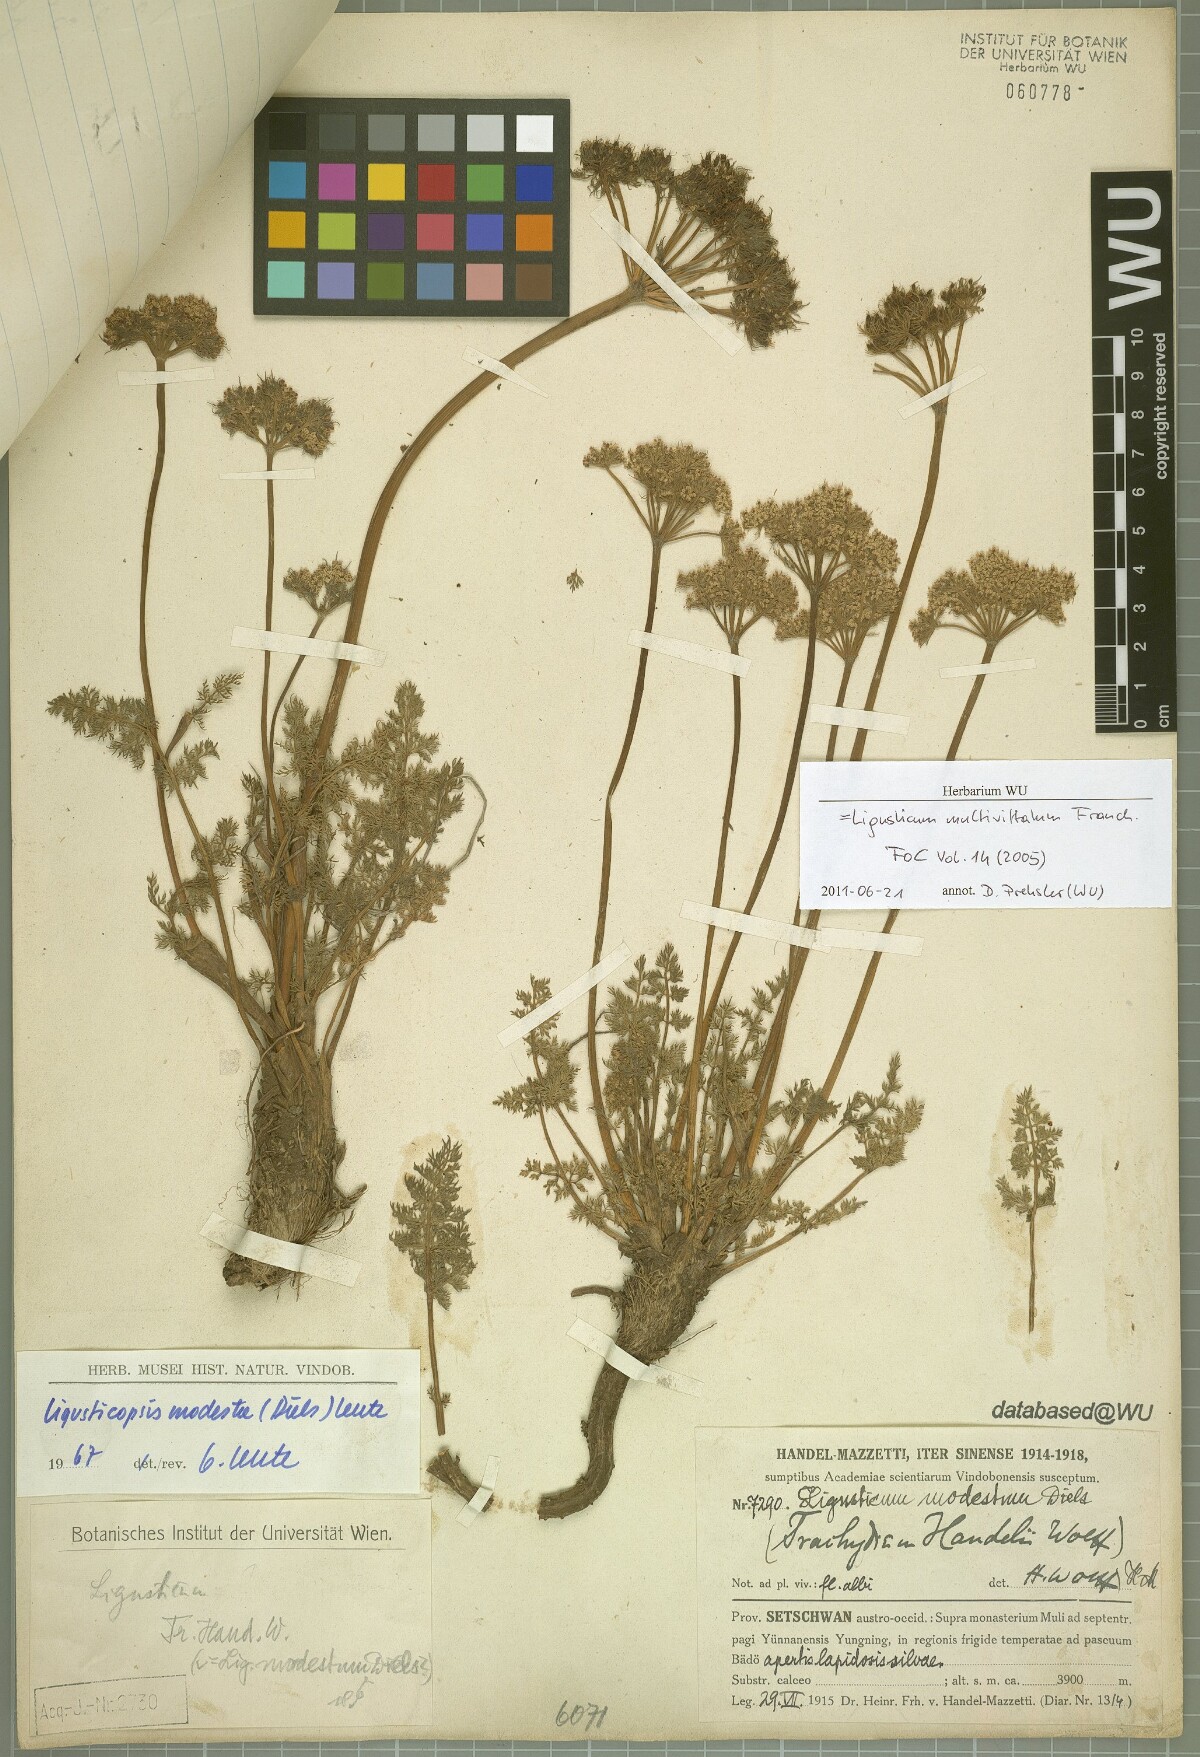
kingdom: Plantae
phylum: Tracheophyta
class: Magnoliopsida
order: Apiales
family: Apiaceae
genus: Ligusticopsis
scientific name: Ligusticopsis multivittata
